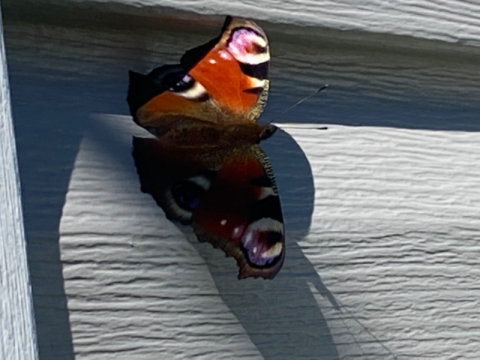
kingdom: Animalia
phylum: Arthropoda
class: Insecta
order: Lepidoptera
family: Nymphalidae
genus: Aglais
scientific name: Aglais io
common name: European Peacock
